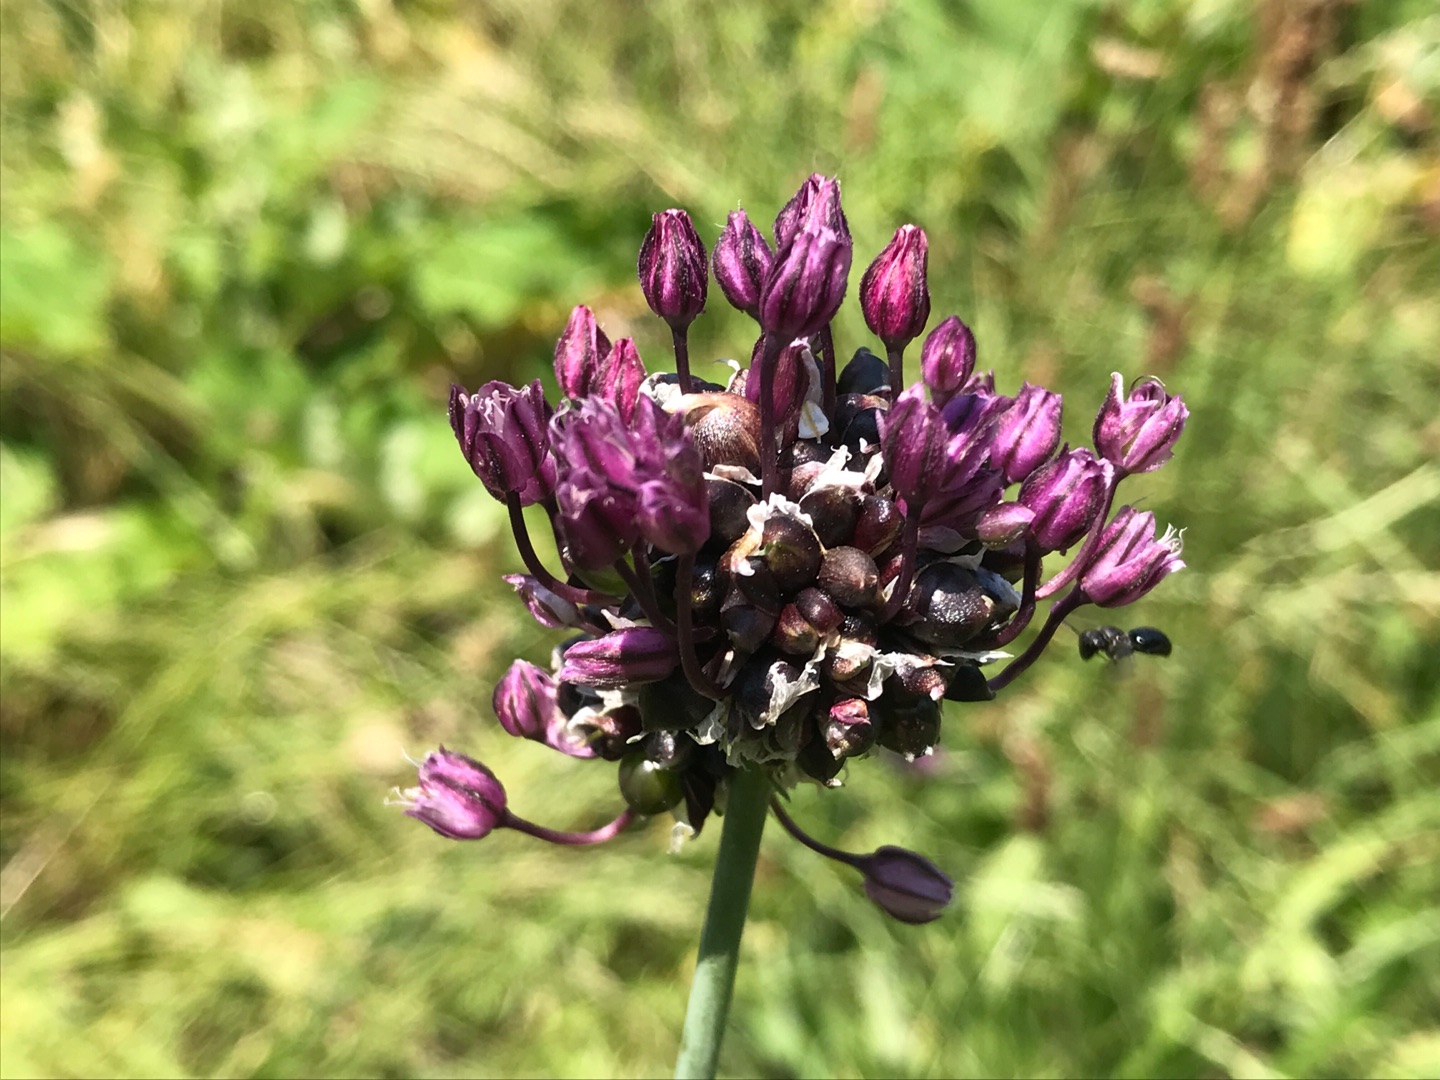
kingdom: Plantae
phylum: Tracheophyta
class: Liliopsida
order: Asparagales
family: Amaryllidaceae
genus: Allium
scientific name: Allium scorodoprasum
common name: Skov-løg
